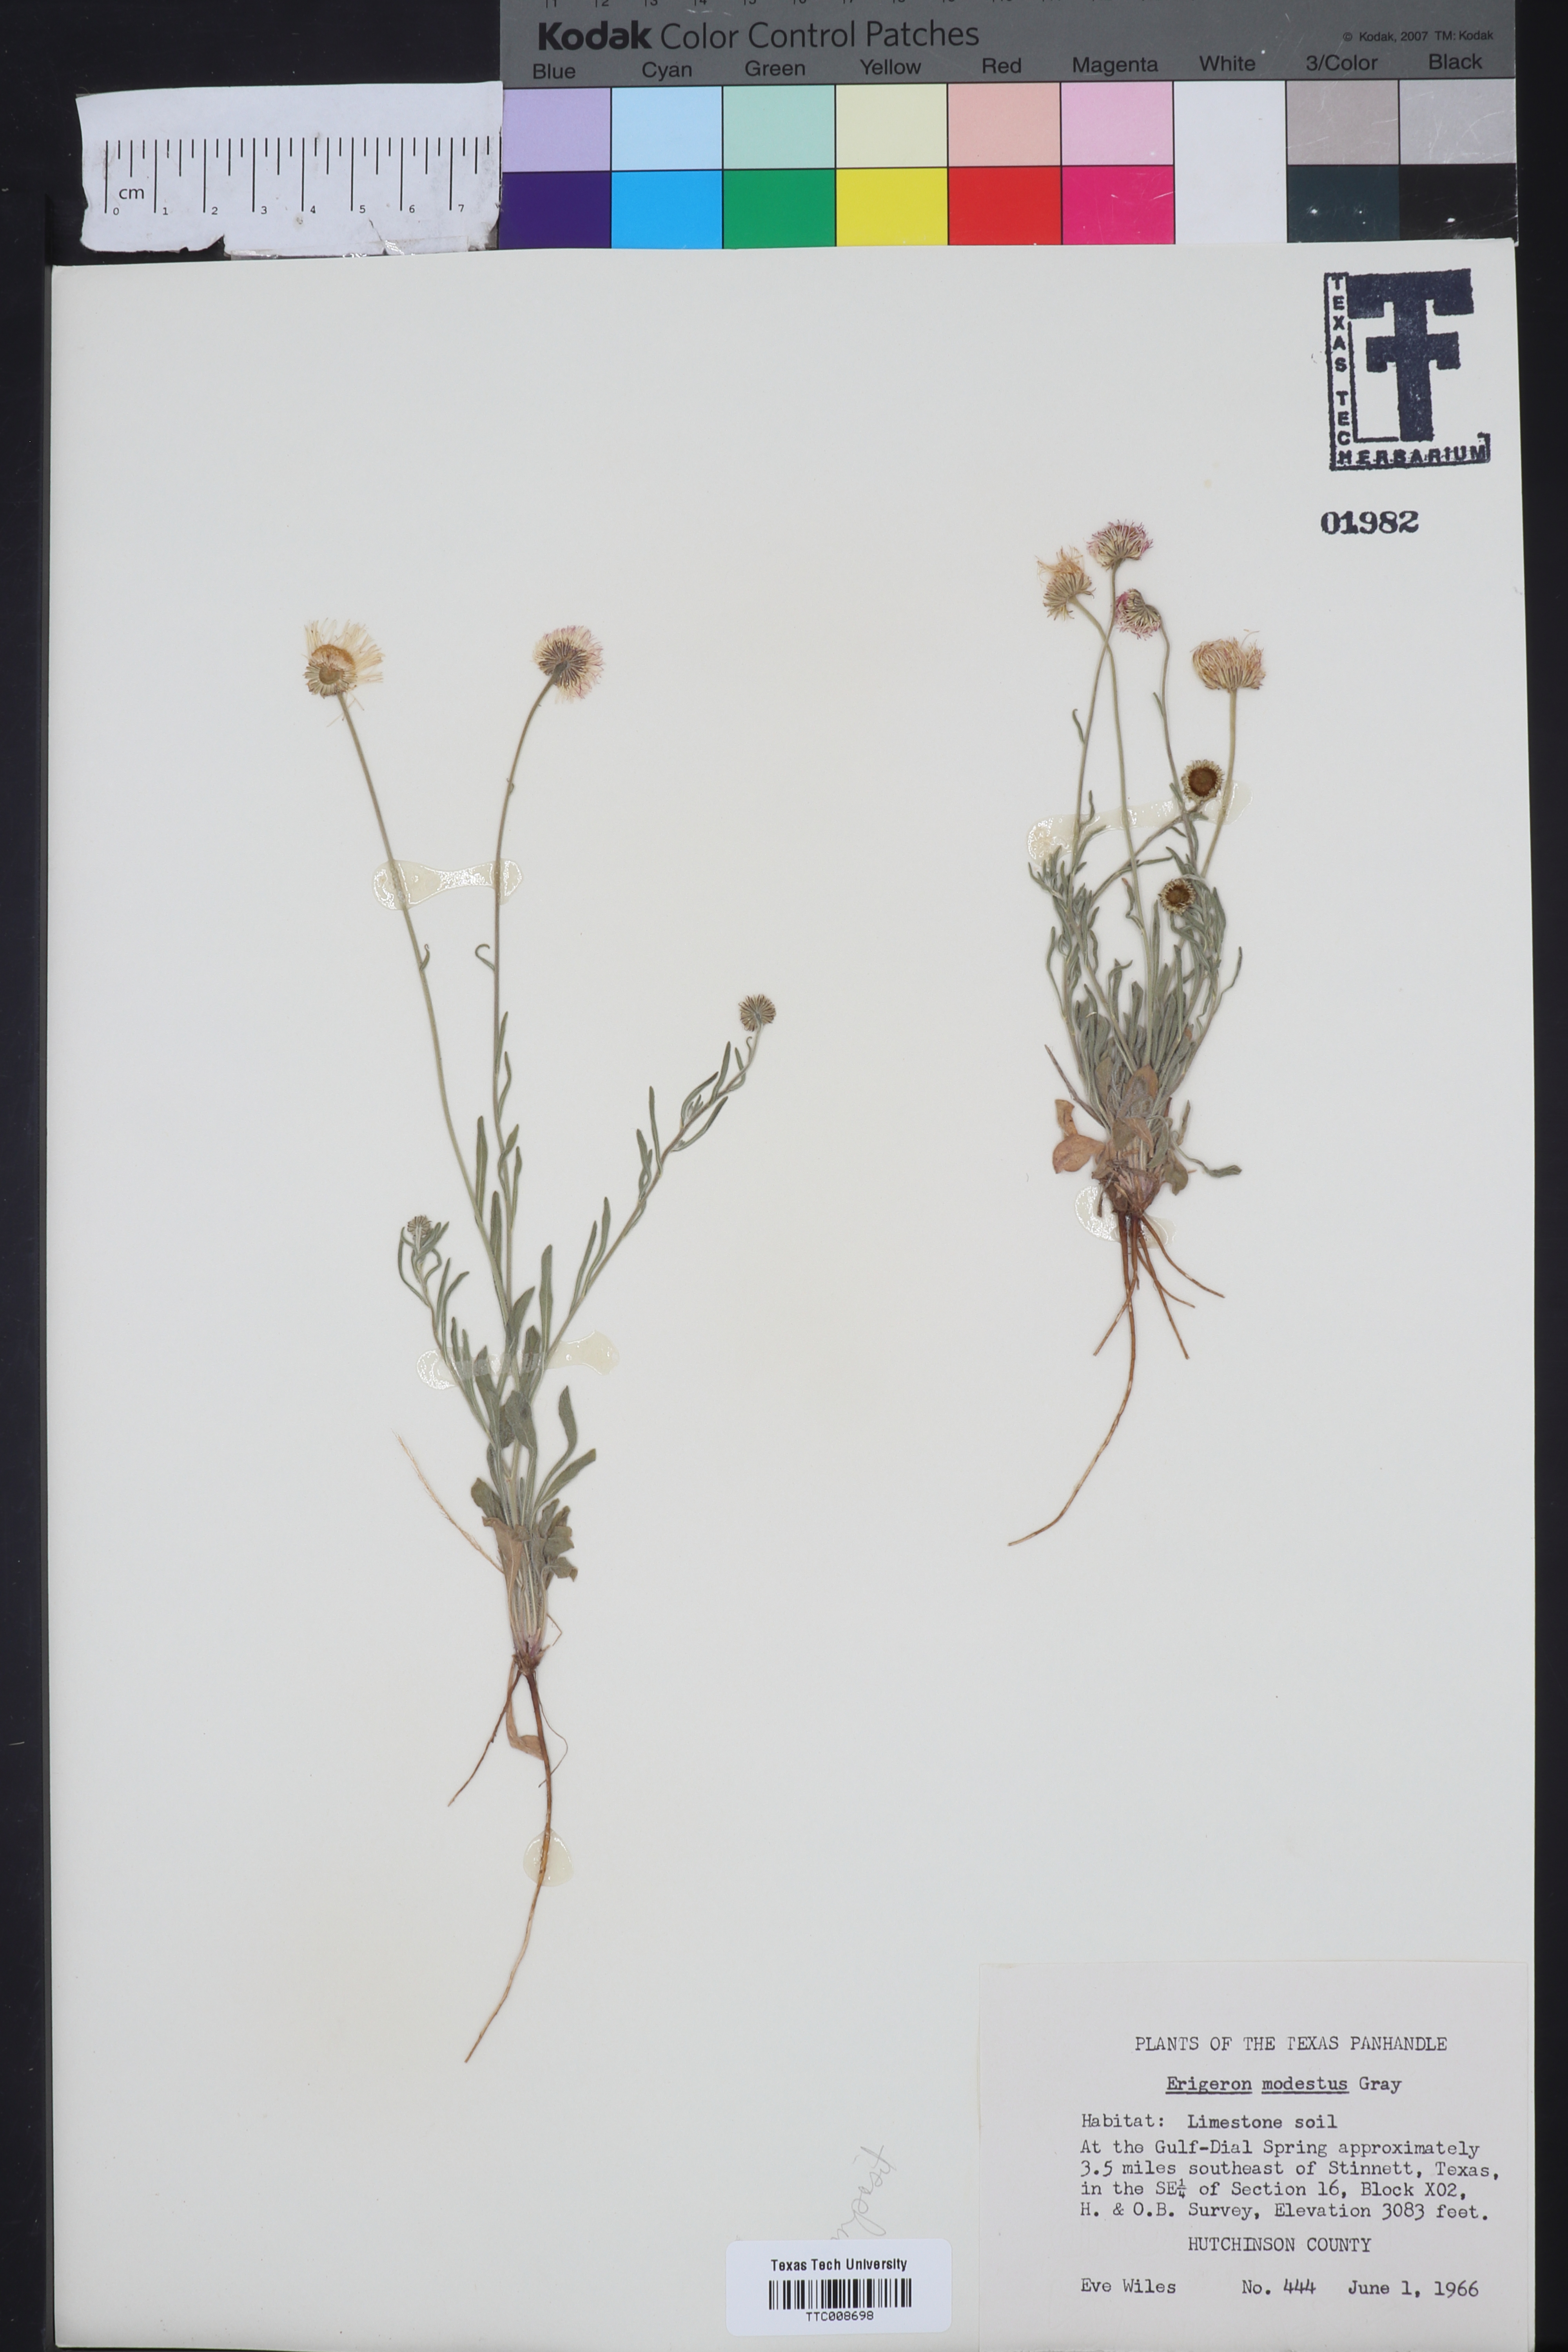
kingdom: Plantae
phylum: Tracheophyta
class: Magnoliopsida
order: Asterales
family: Asteraceae
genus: Erigeron
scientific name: Erigeron modestus
